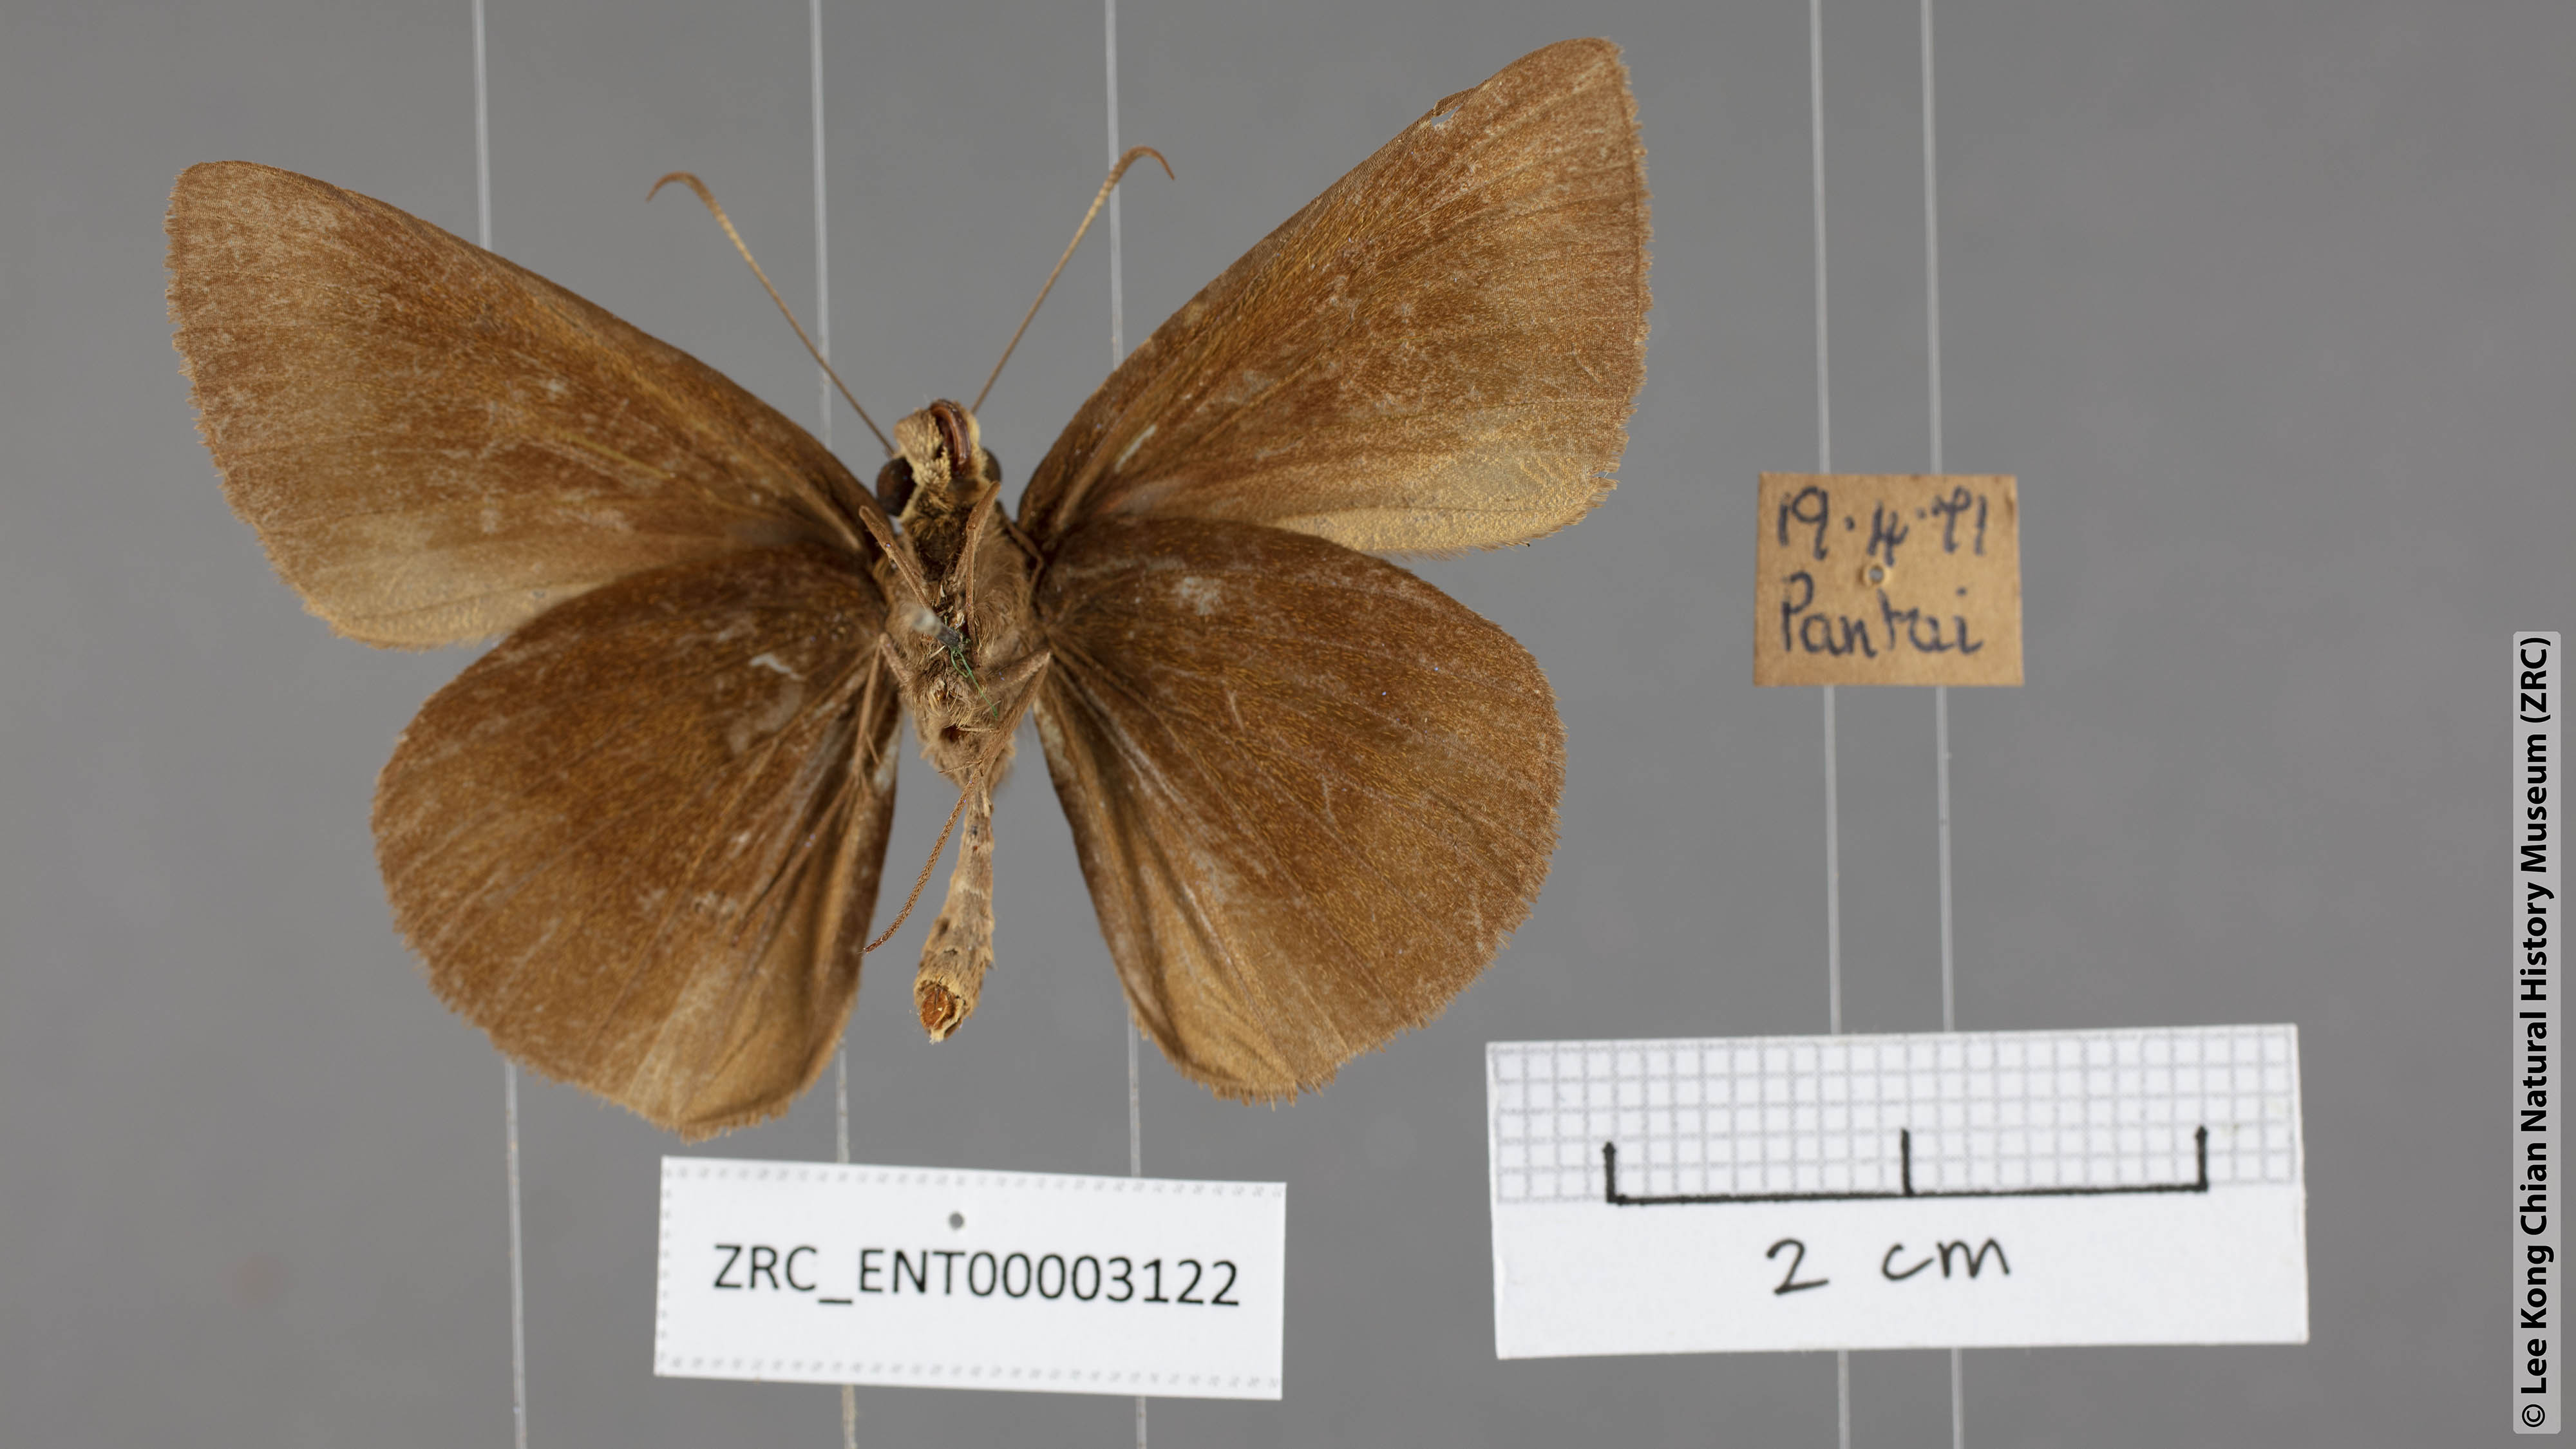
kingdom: Animalia
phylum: Arthropoda
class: Insecta
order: Lepidoptera
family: Hesperiidae
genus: Ancistroides
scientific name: Ancistroides nigrita
